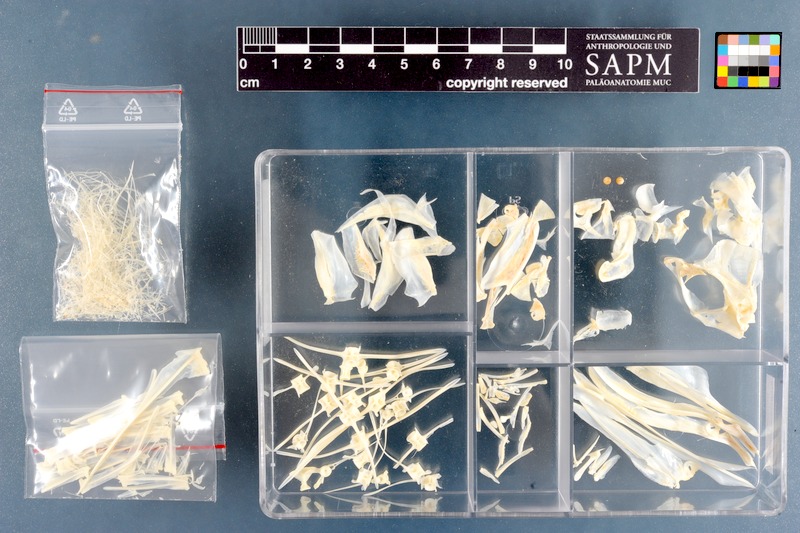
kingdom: Animalia
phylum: Chordata
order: Perciformes
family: Menidae
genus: Mene
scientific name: Mene maculata
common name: Moonfish
